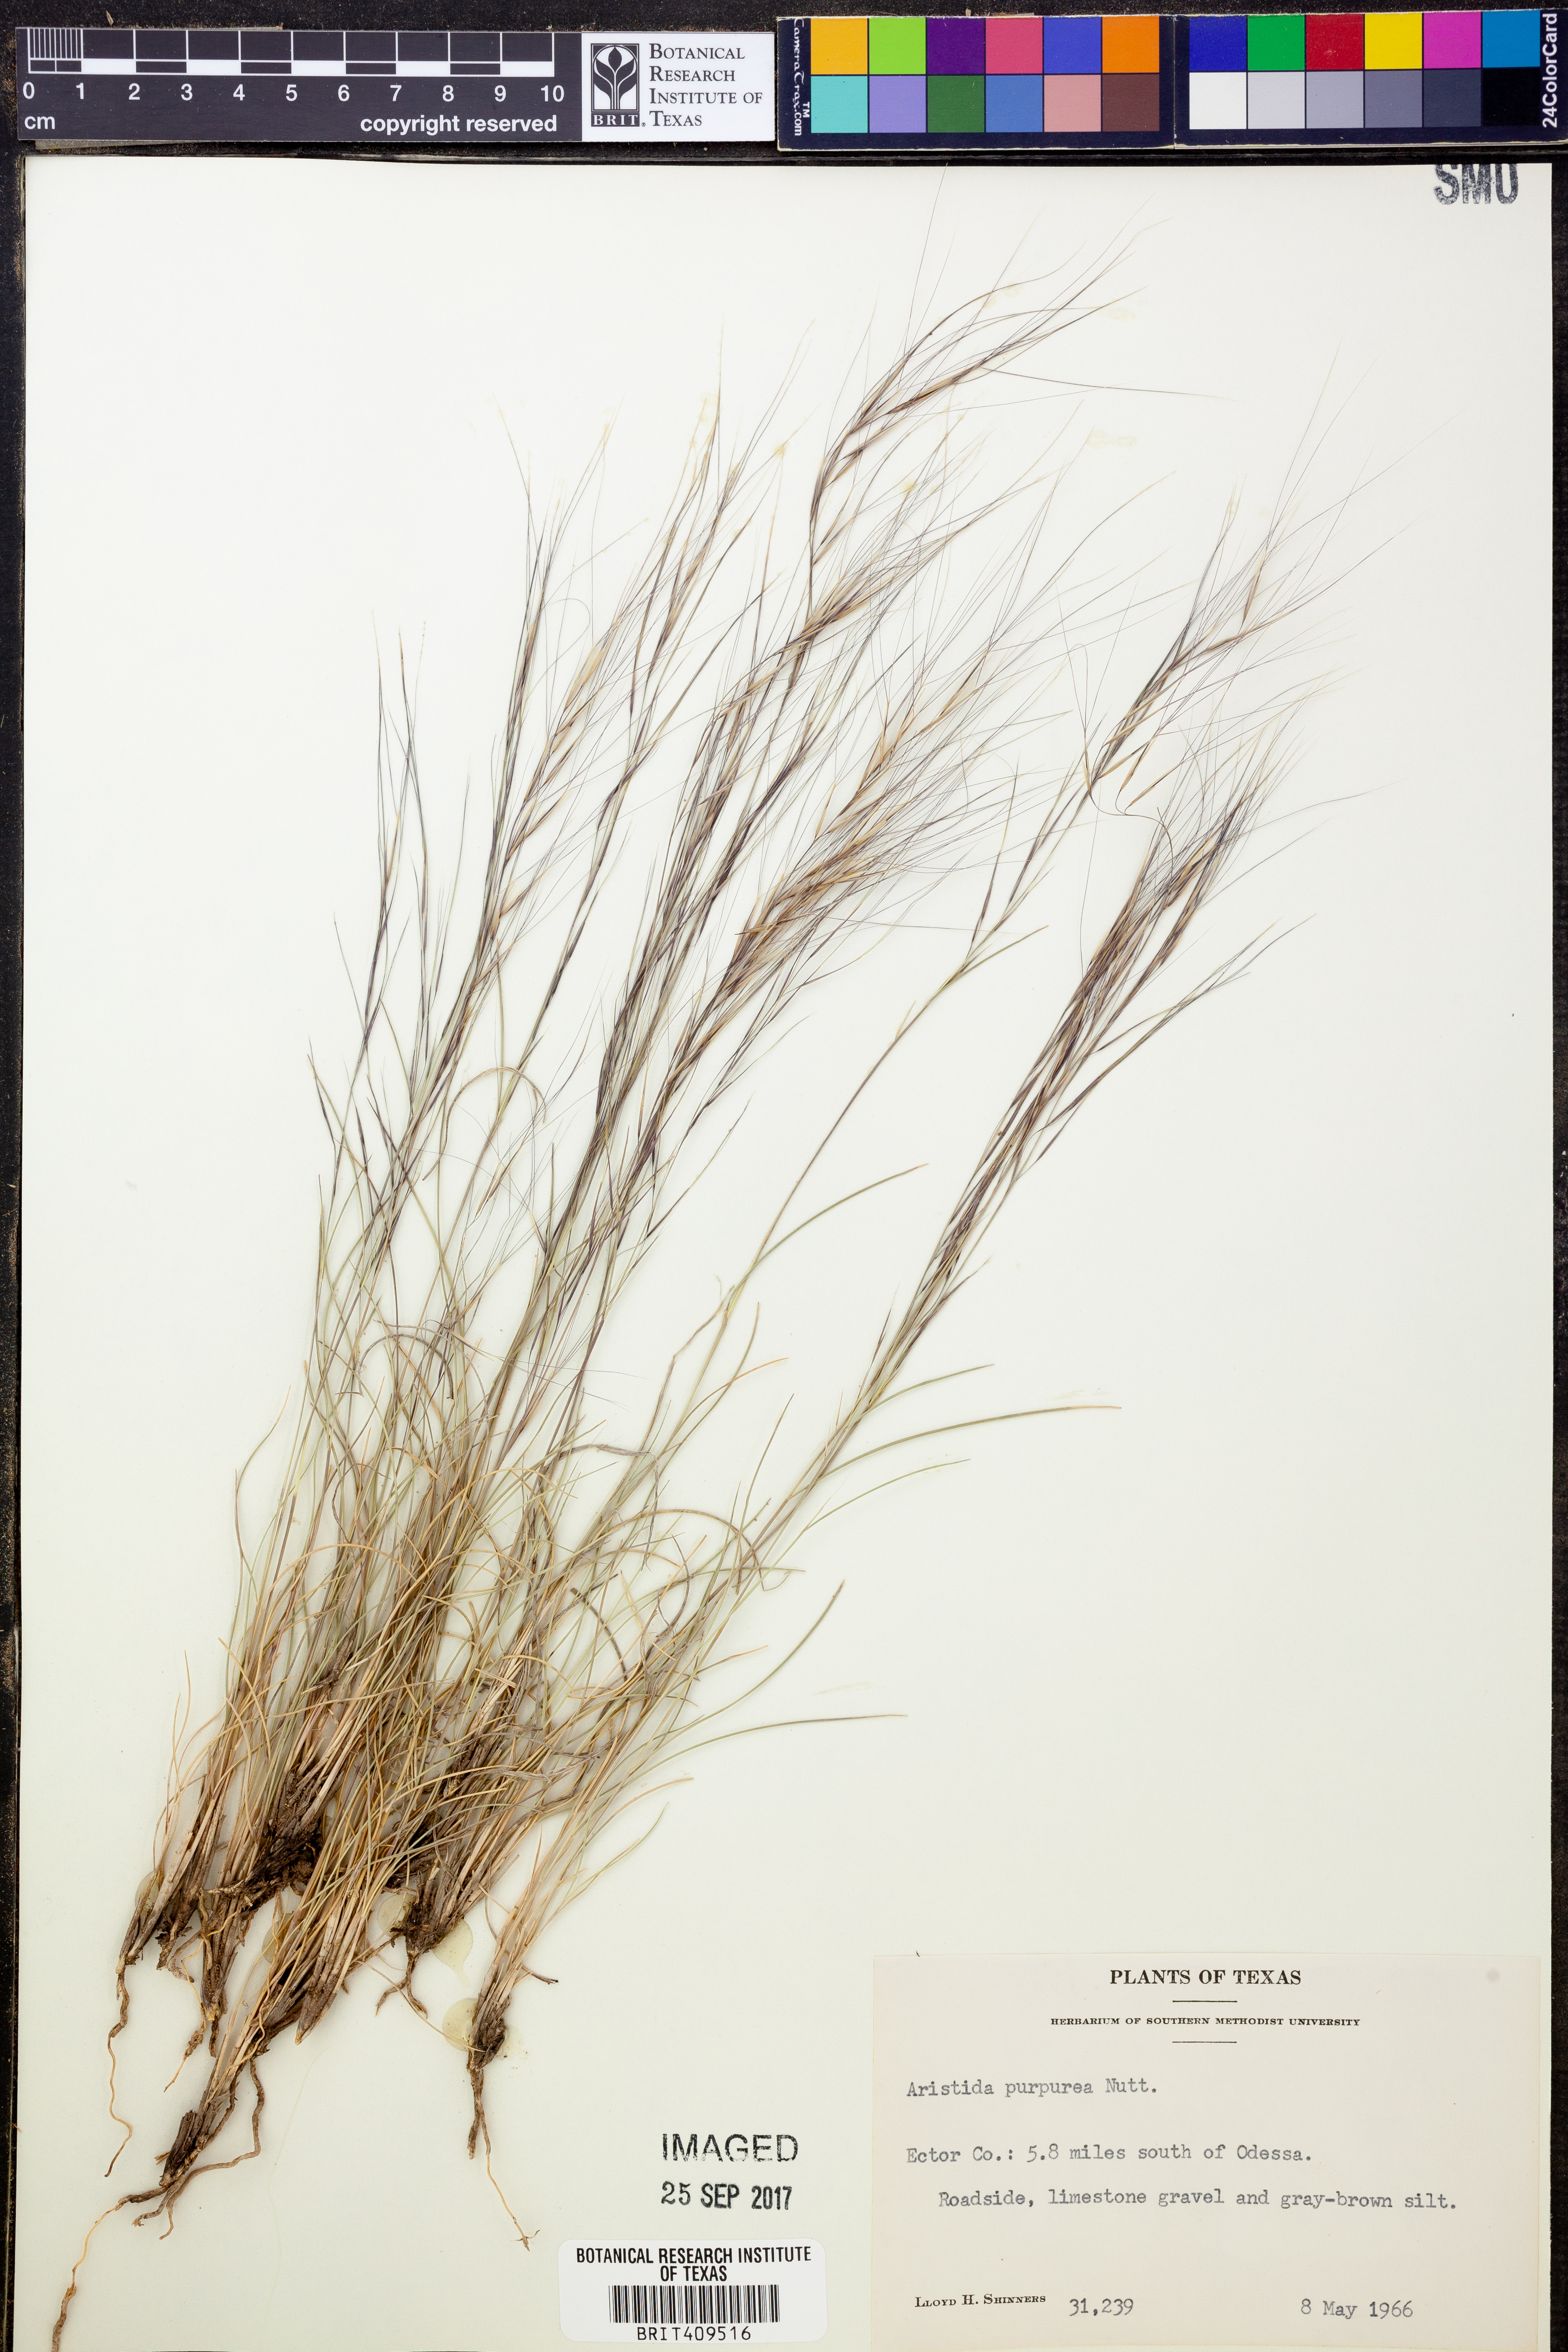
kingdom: Plantae
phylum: Tracheophyta
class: Liliopsida
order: Poales
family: Poaceae
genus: Aristida
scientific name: Aristida purpurea
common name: Purple threeawn
